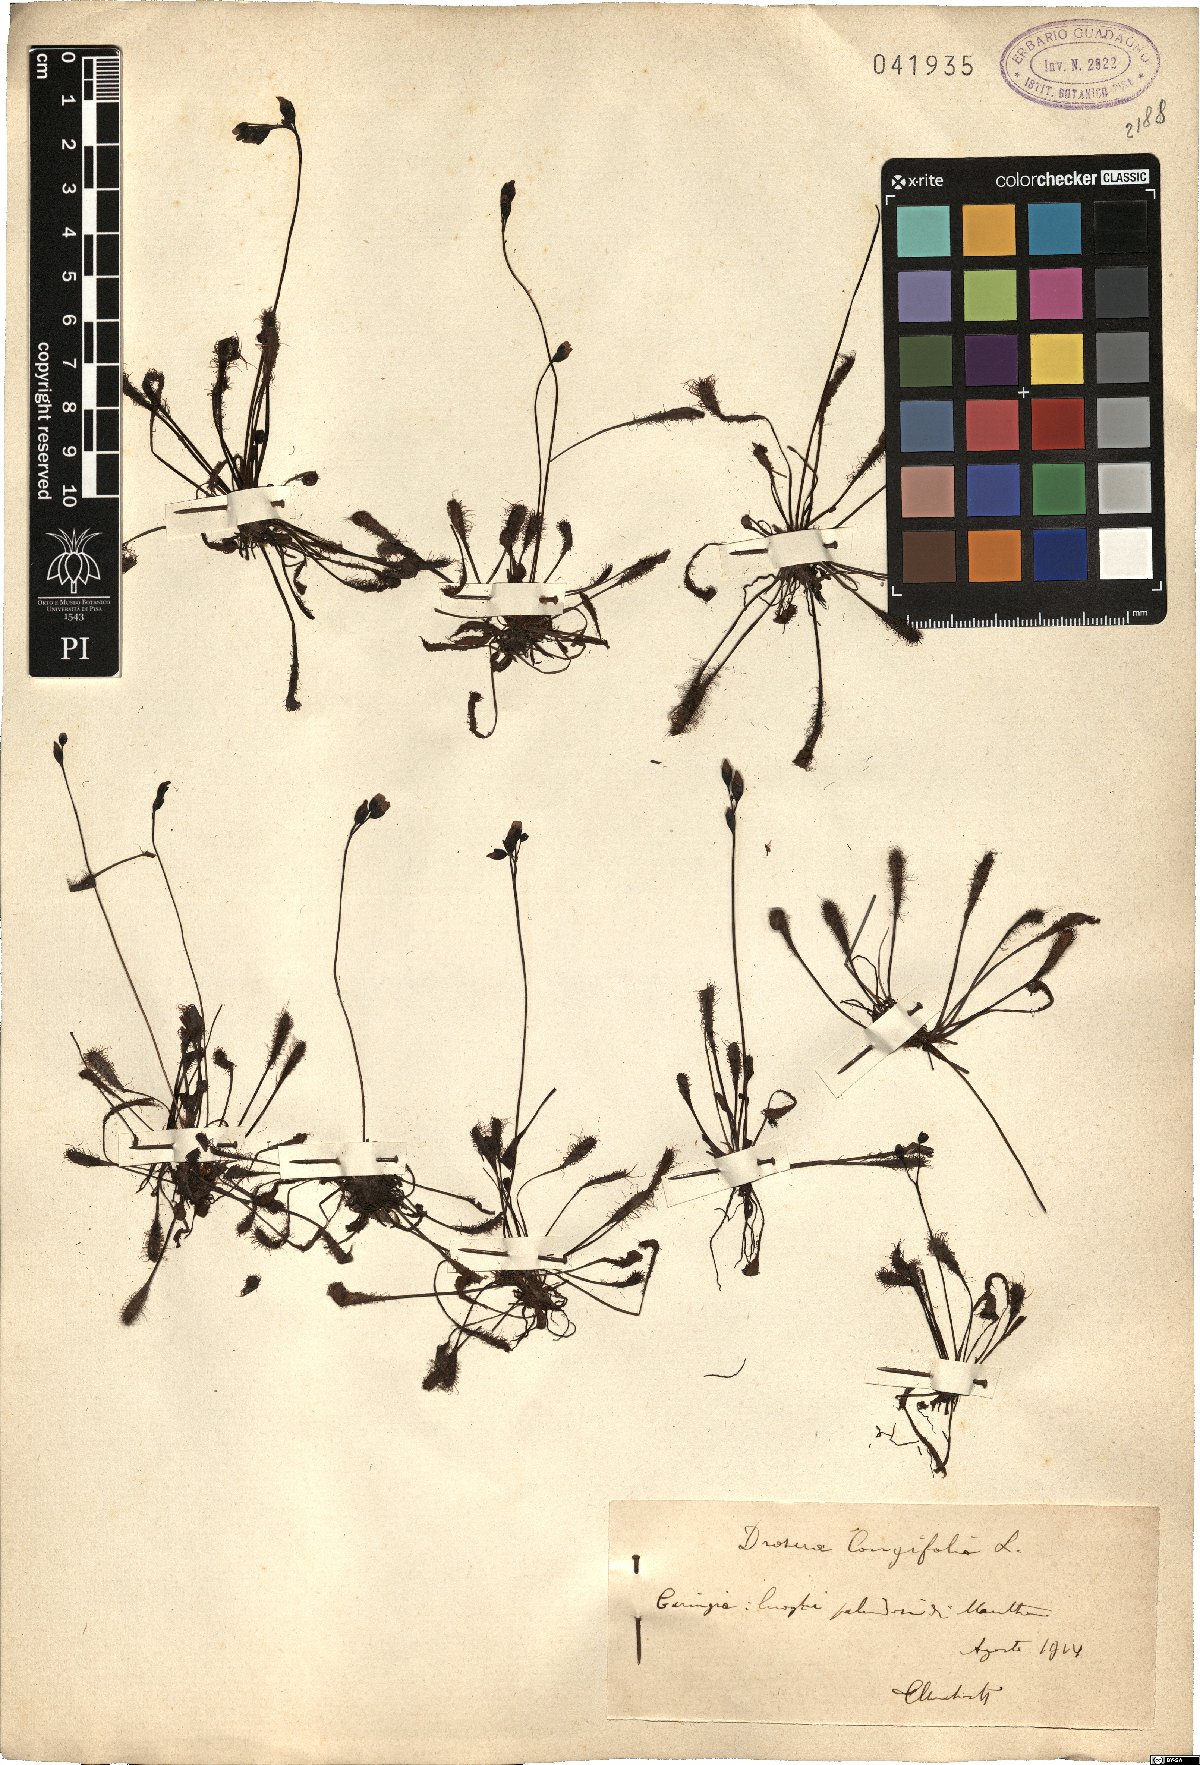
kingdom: Plantae
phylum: Tracheophyta
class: Magnoliopsida
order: Caryophyllales
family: Droseraceae
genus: Drosera
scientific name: Drosera anglica
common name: Great sundew
